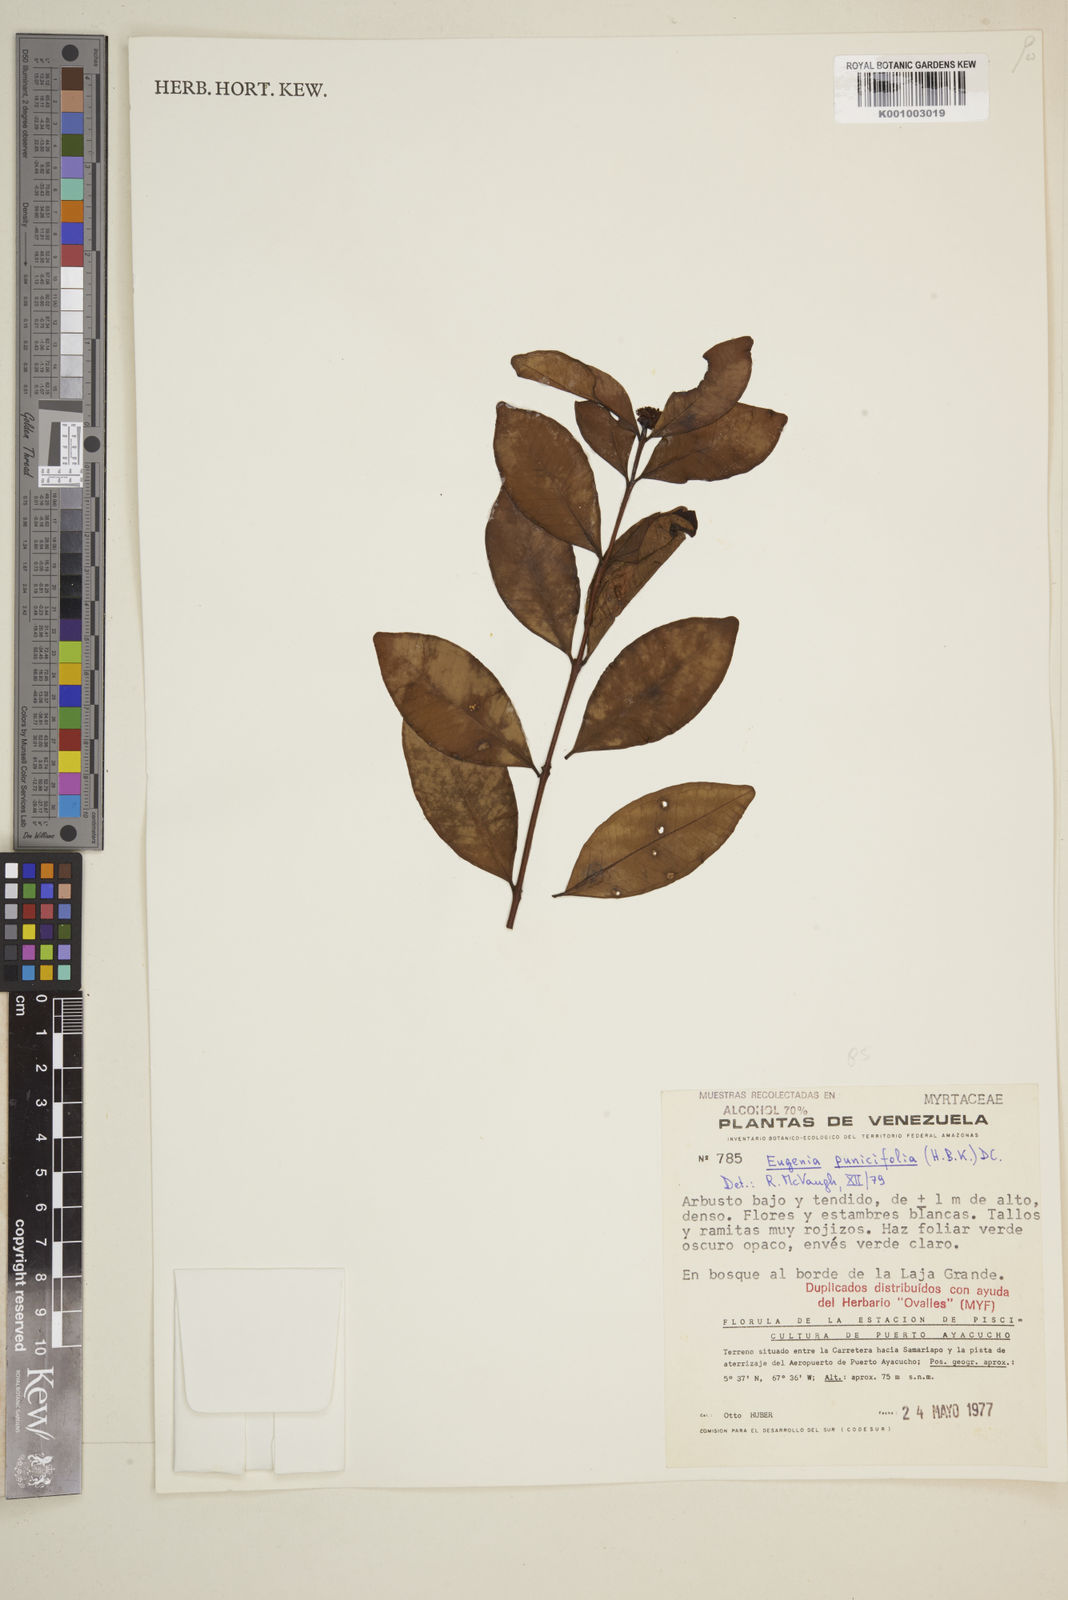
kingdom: Plantae
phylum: Tracheophyta
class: Magnoliopsida
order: Myrtales
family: Myrtaceae
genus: Eugenia
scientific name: Eugenia punicifolia
